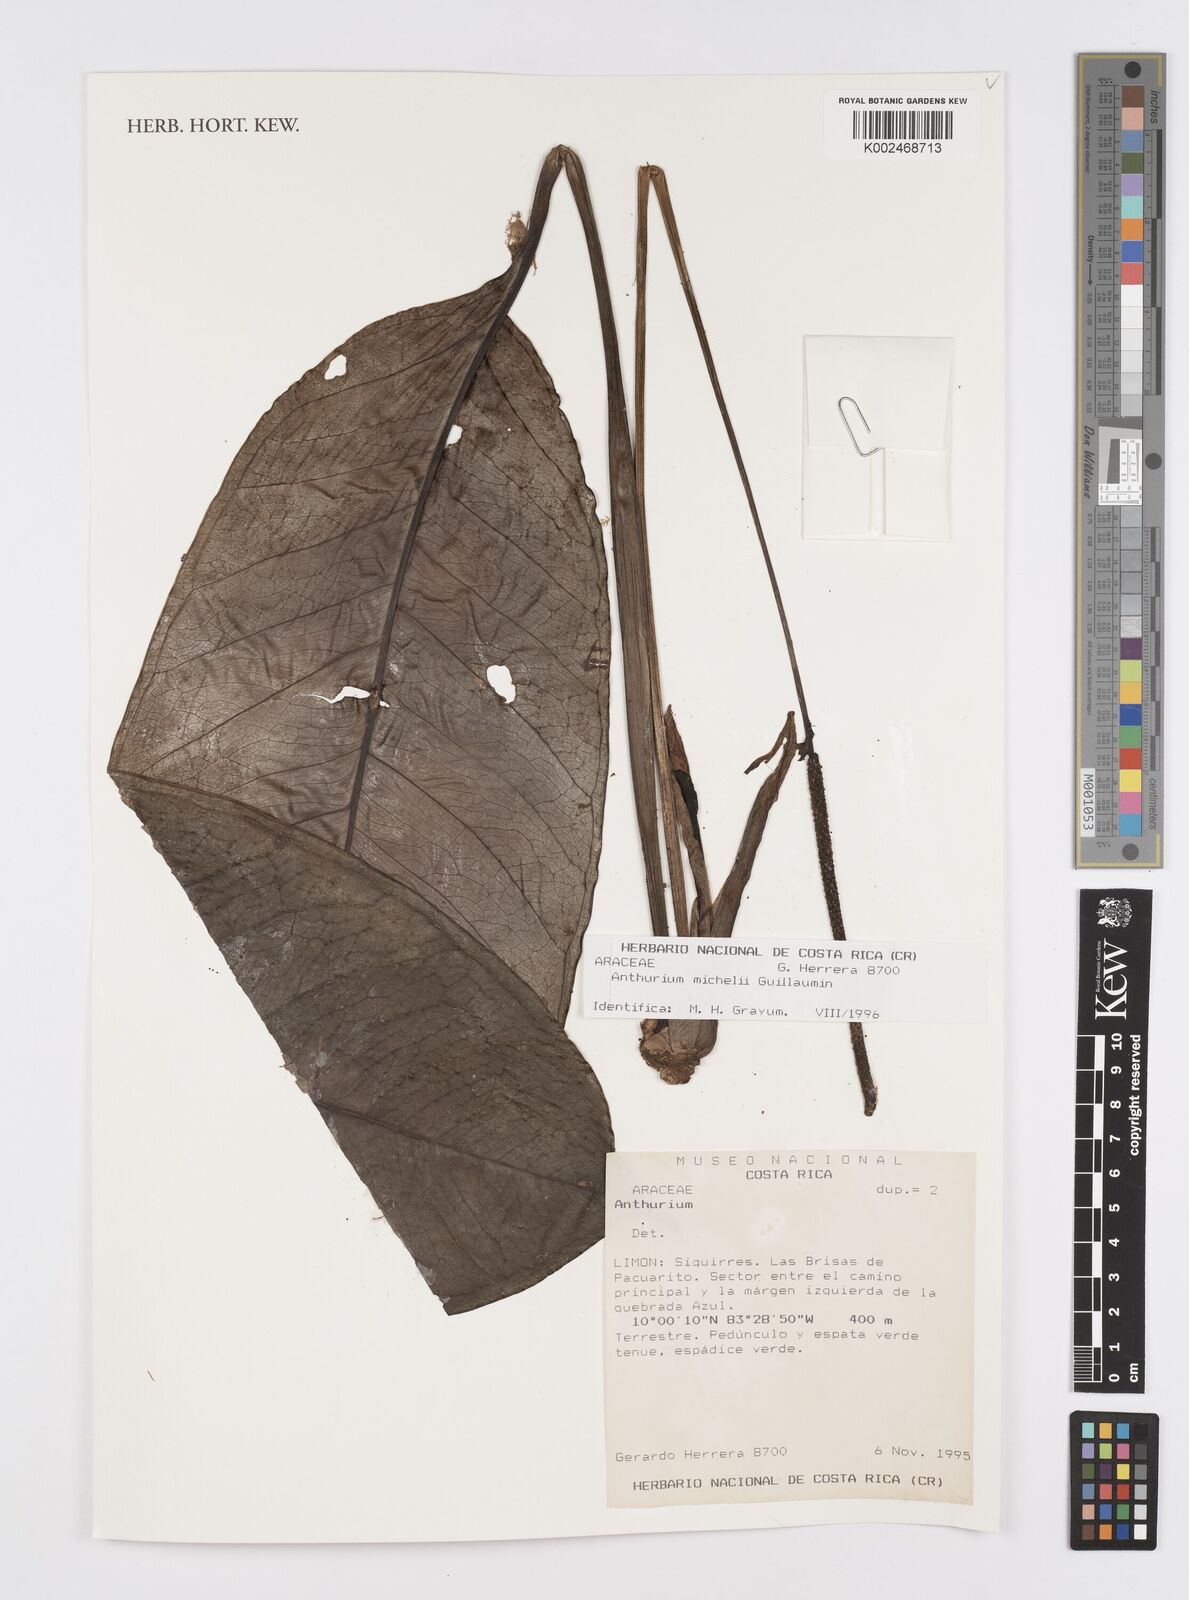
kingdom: Plantae
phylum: Tracheophyta
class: Liliopsida
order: Alismatales
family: Araceae
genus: Anthurium
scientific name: Anthurium michelii
